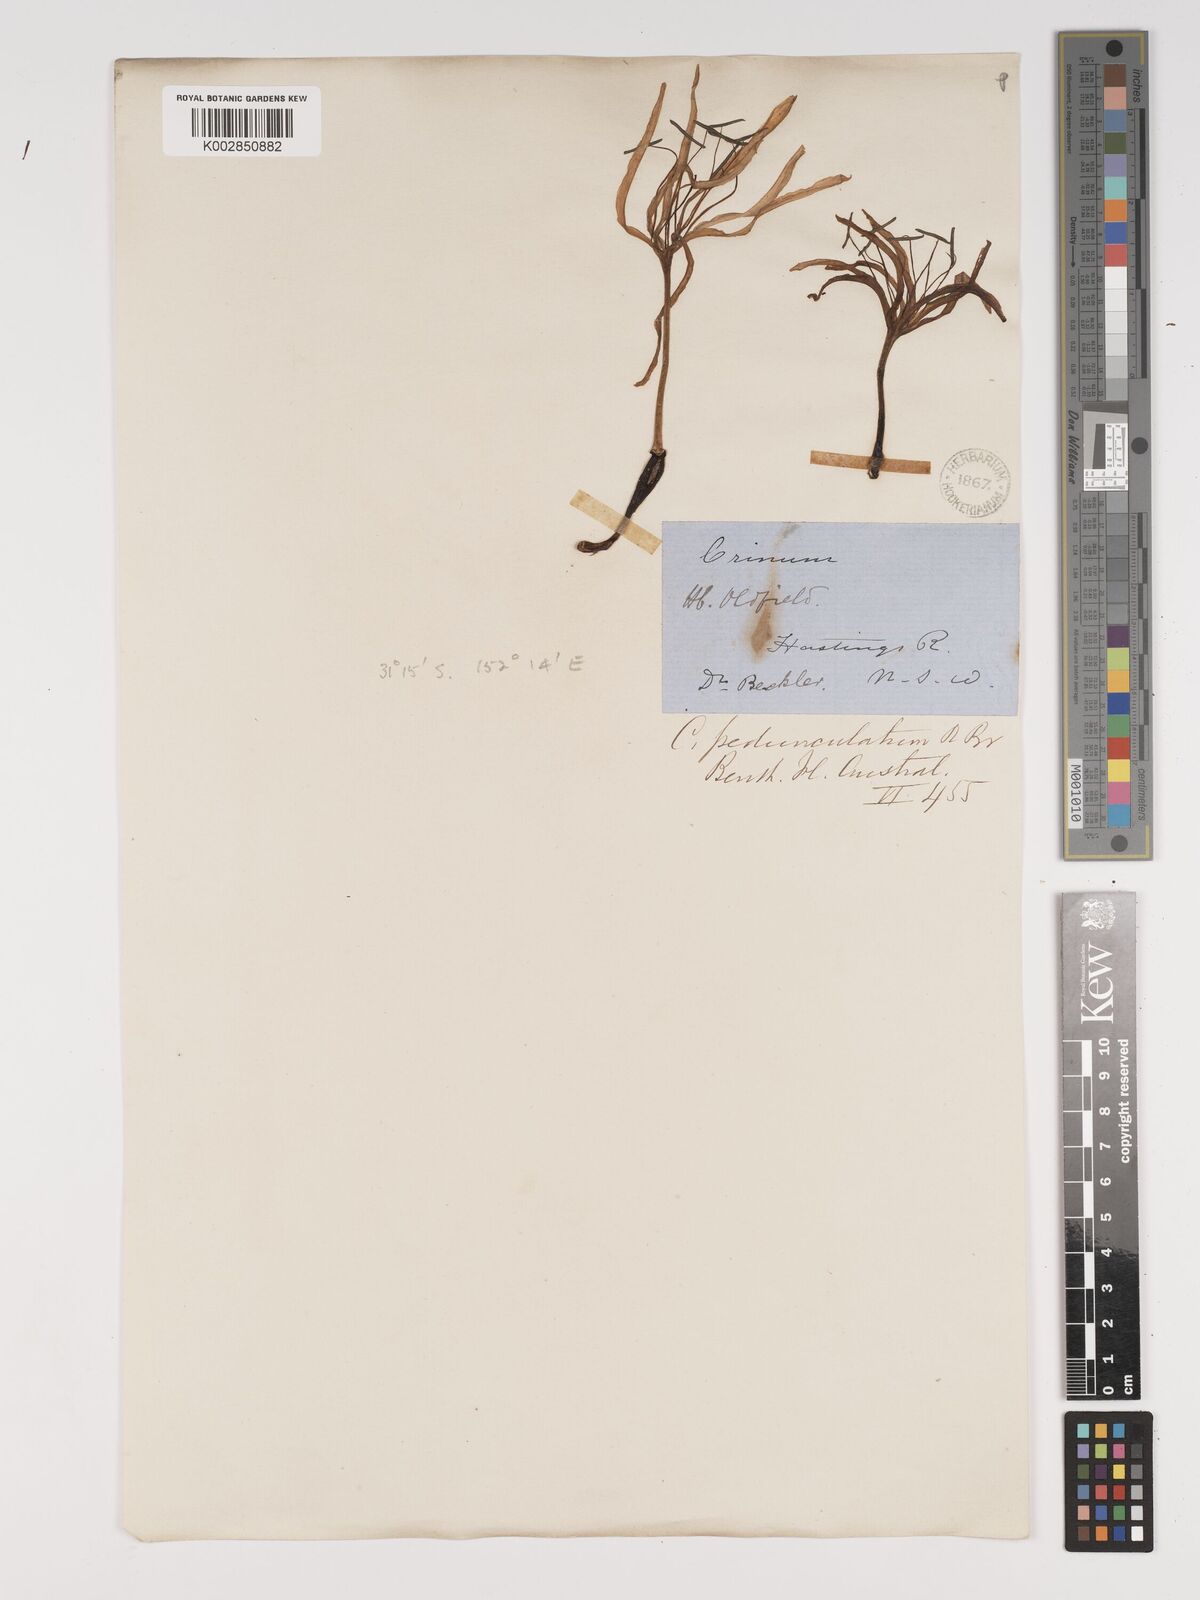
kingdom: Plantae
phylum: Tracheophyta
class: Liliopsida
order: Asparagales
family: Amaryllidaceae
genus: Crinum
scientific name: Crinum asiaticum
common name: Poisonbulb
